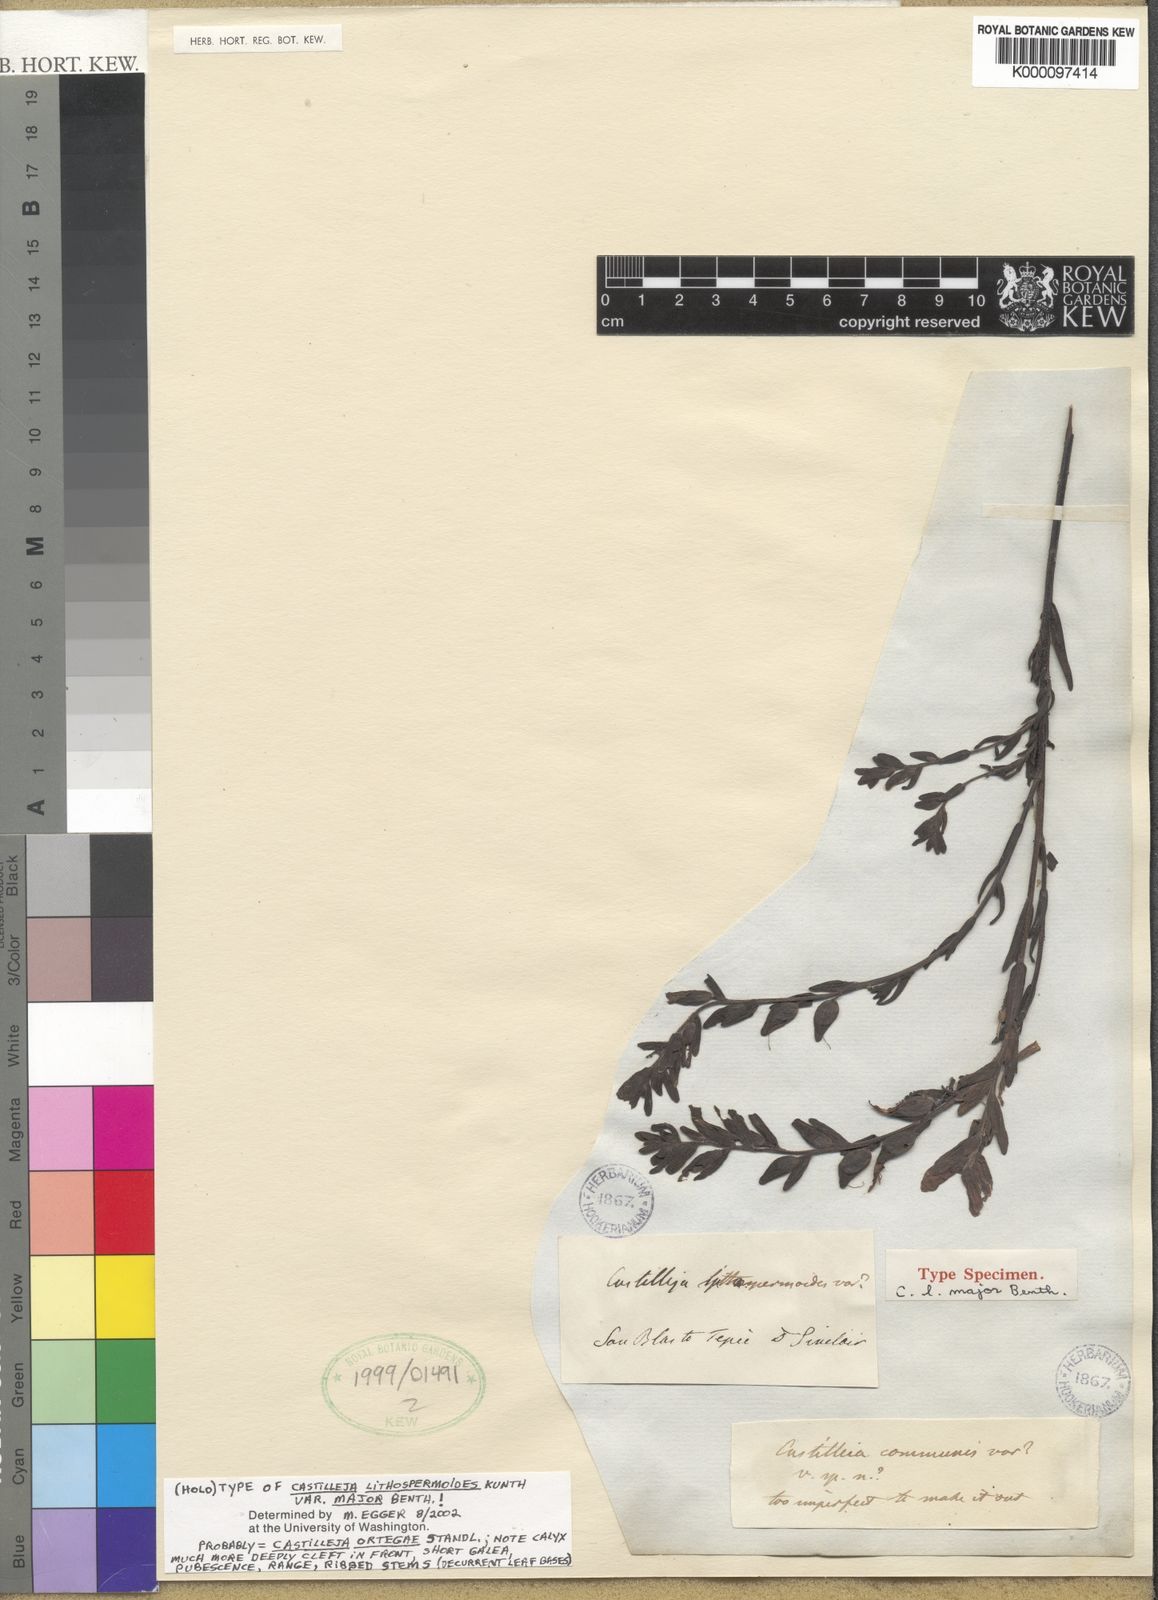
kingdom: Plantae
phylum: Tracheophyta
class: Magnoliopsida
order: Lamiales
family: Orobanchaceae
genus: Castilleja
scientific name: Castilleja ortegae
